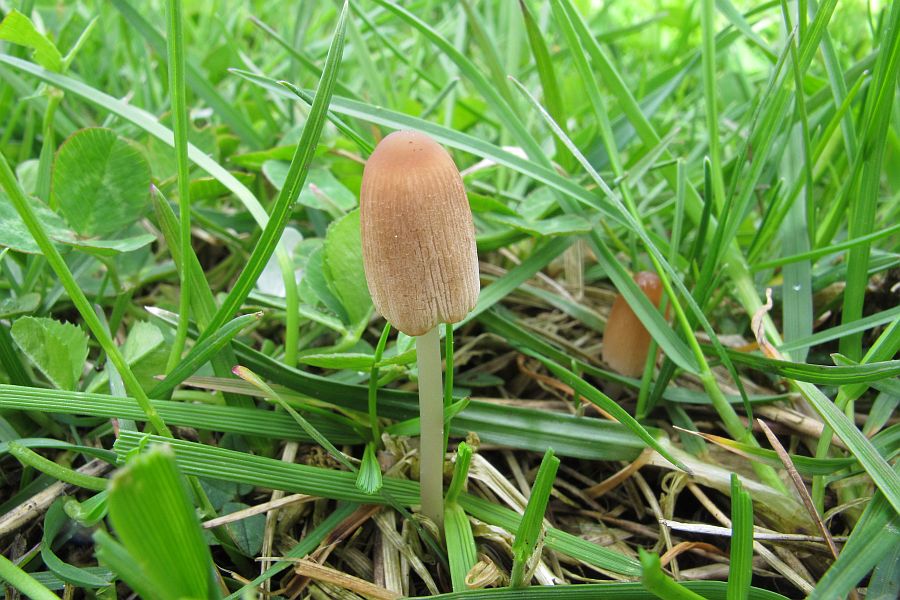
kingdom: Fungi
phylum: Basidiomycota
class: Agaricomycetes
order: Agaricales
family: Psathyrellaceae
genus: Parasola
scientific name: Parasola auricoma
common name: hansens hjulhat
